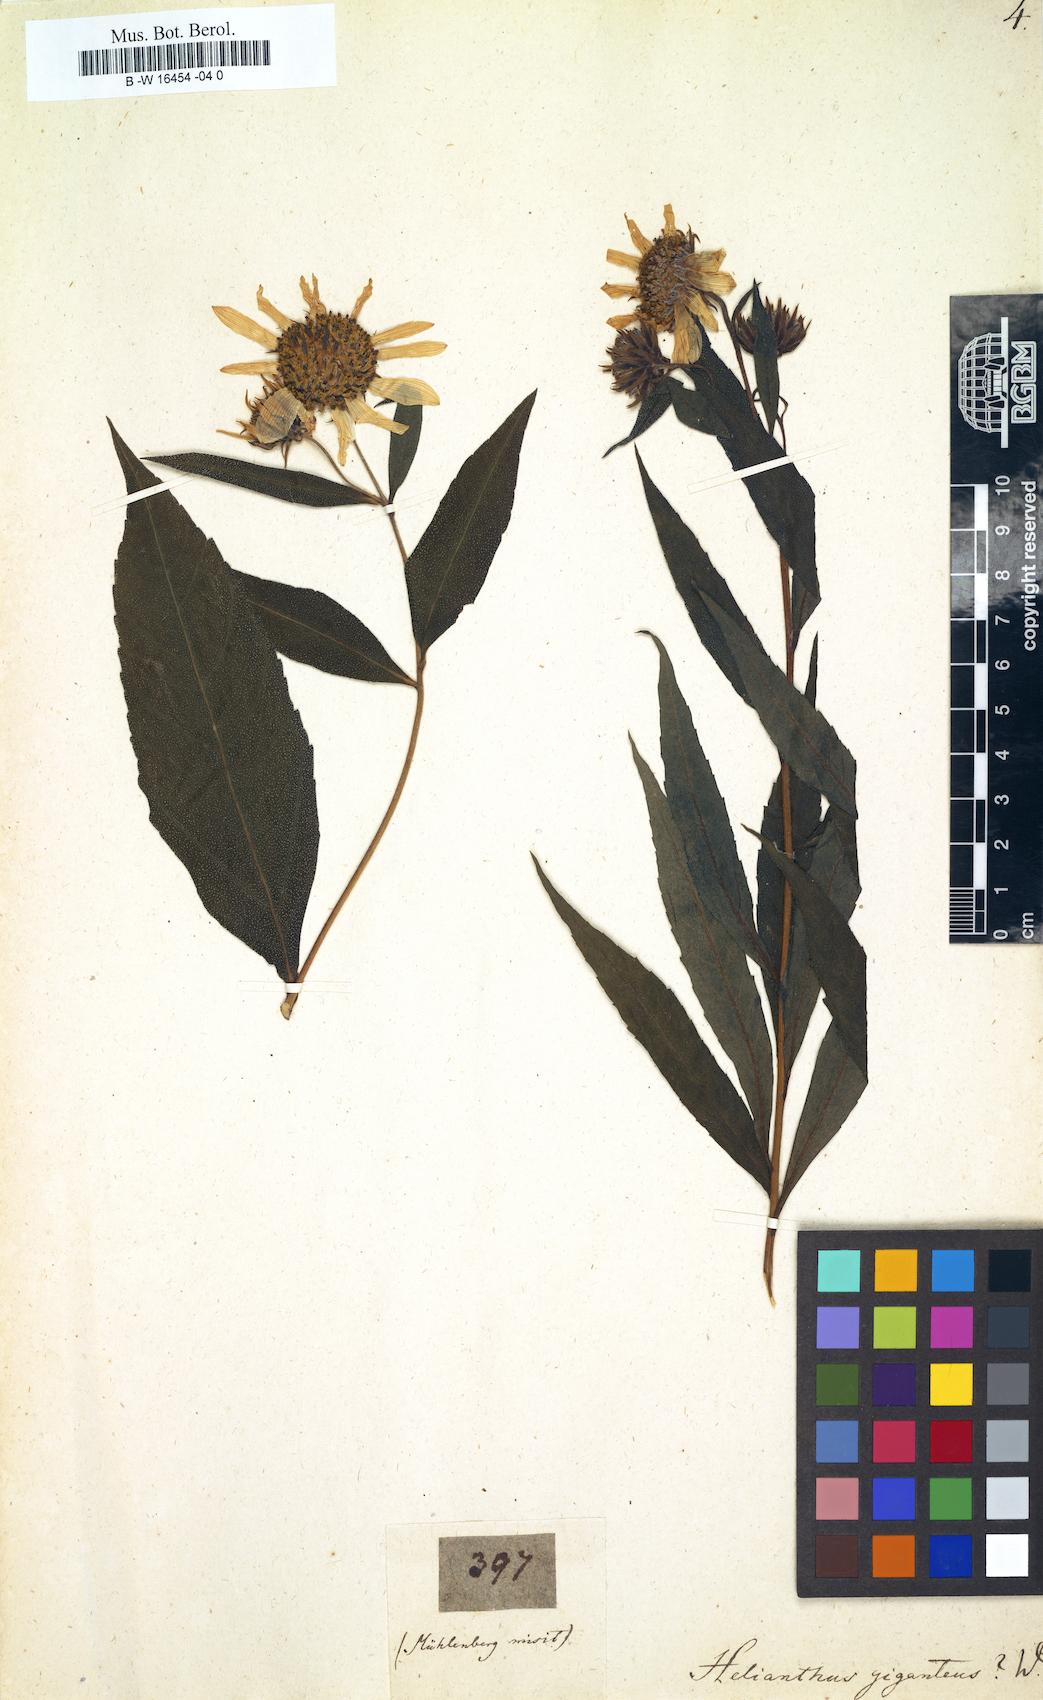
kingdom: Plantae
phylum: Tracheophyta
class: Magnoliopsida
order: Asterales
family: Asteraceae
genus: Helianthus
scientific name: Helianthus giganteus
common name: Giant sunflower
